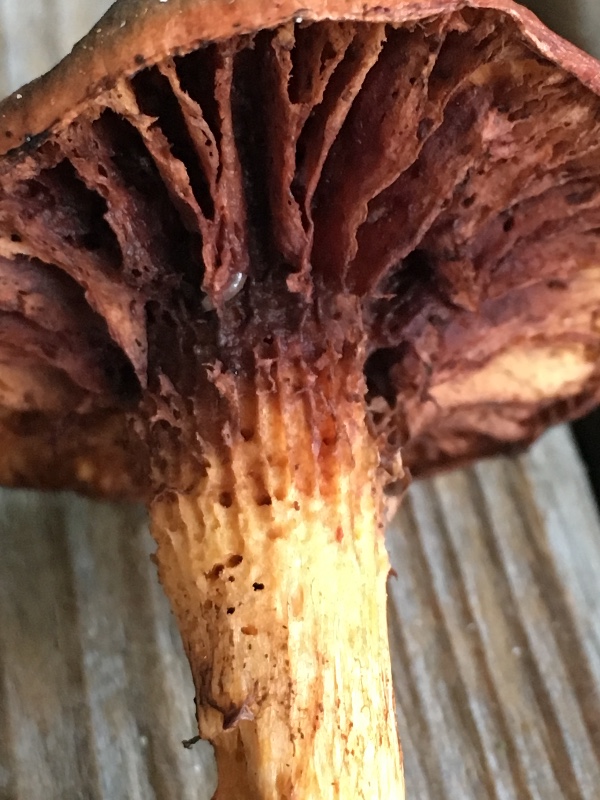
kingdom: Fungi
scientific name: Fungi
